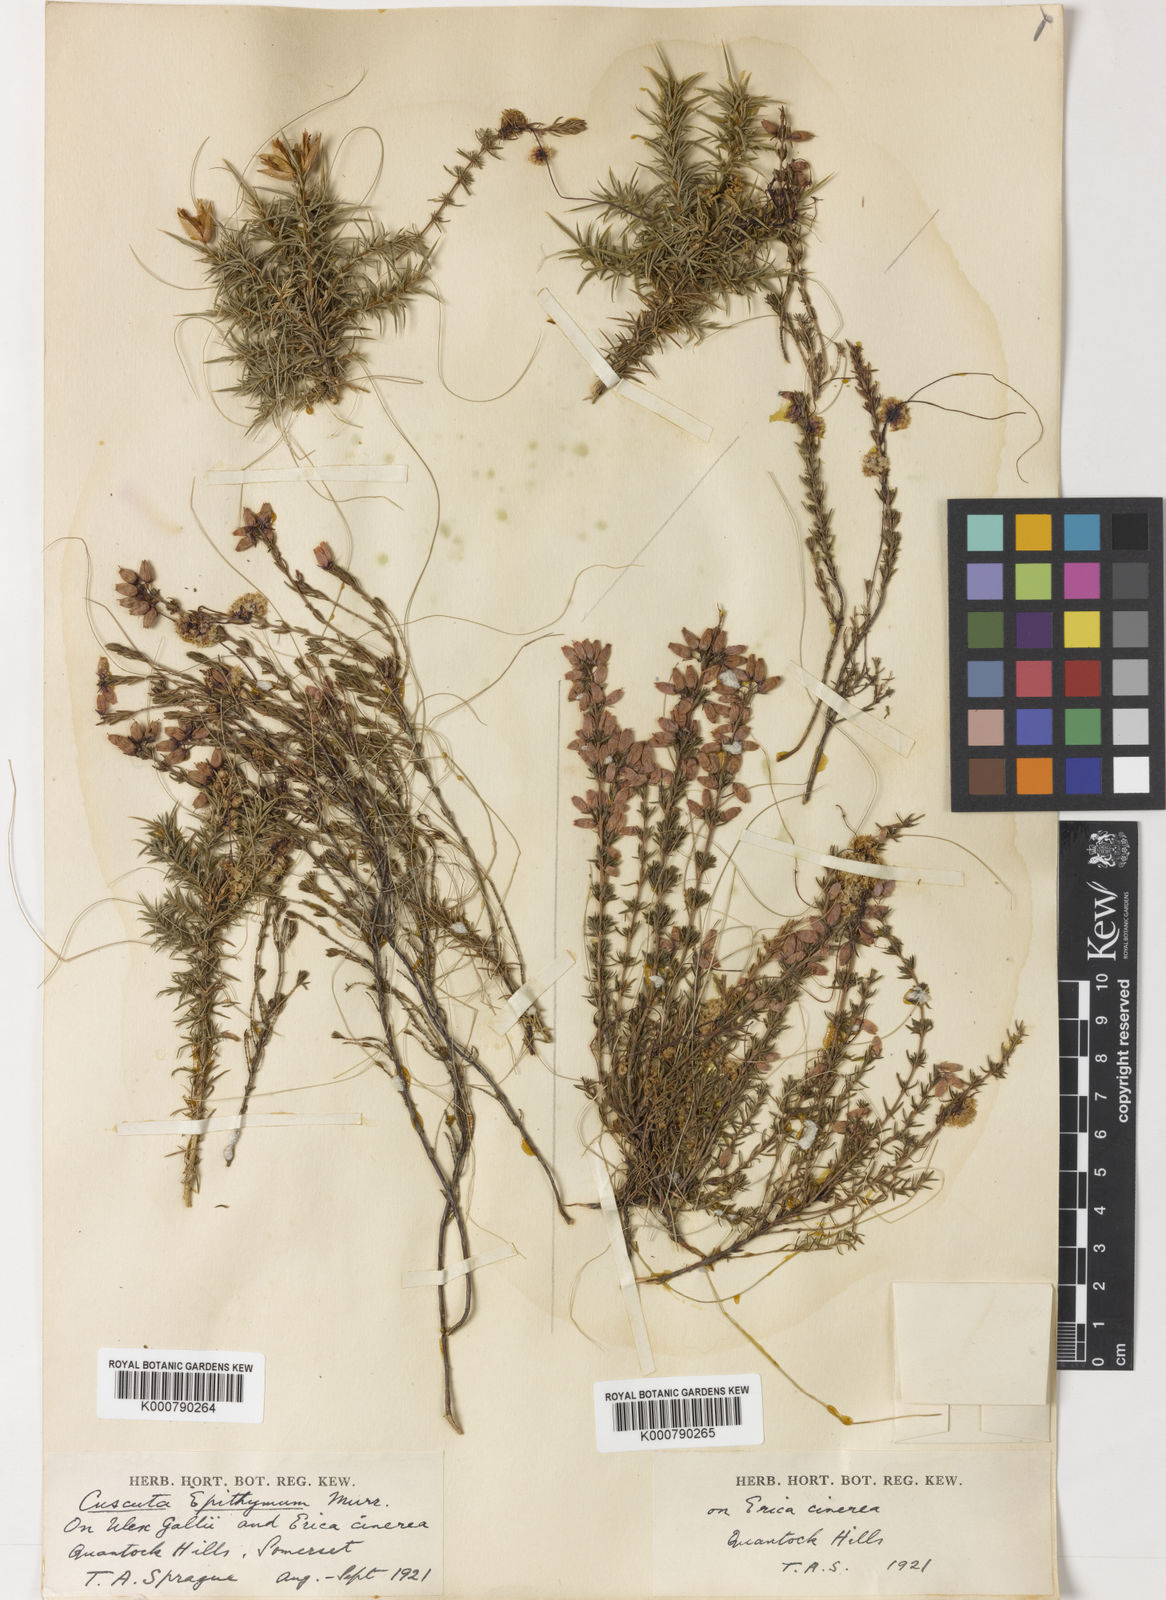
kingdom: Plantae
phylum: Tracheophyta
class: Magnoliopsida
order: Solanales
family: Convolvulaceae
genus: Cuscuta
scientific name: Cuscuta epithymum
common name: Clover dodder
